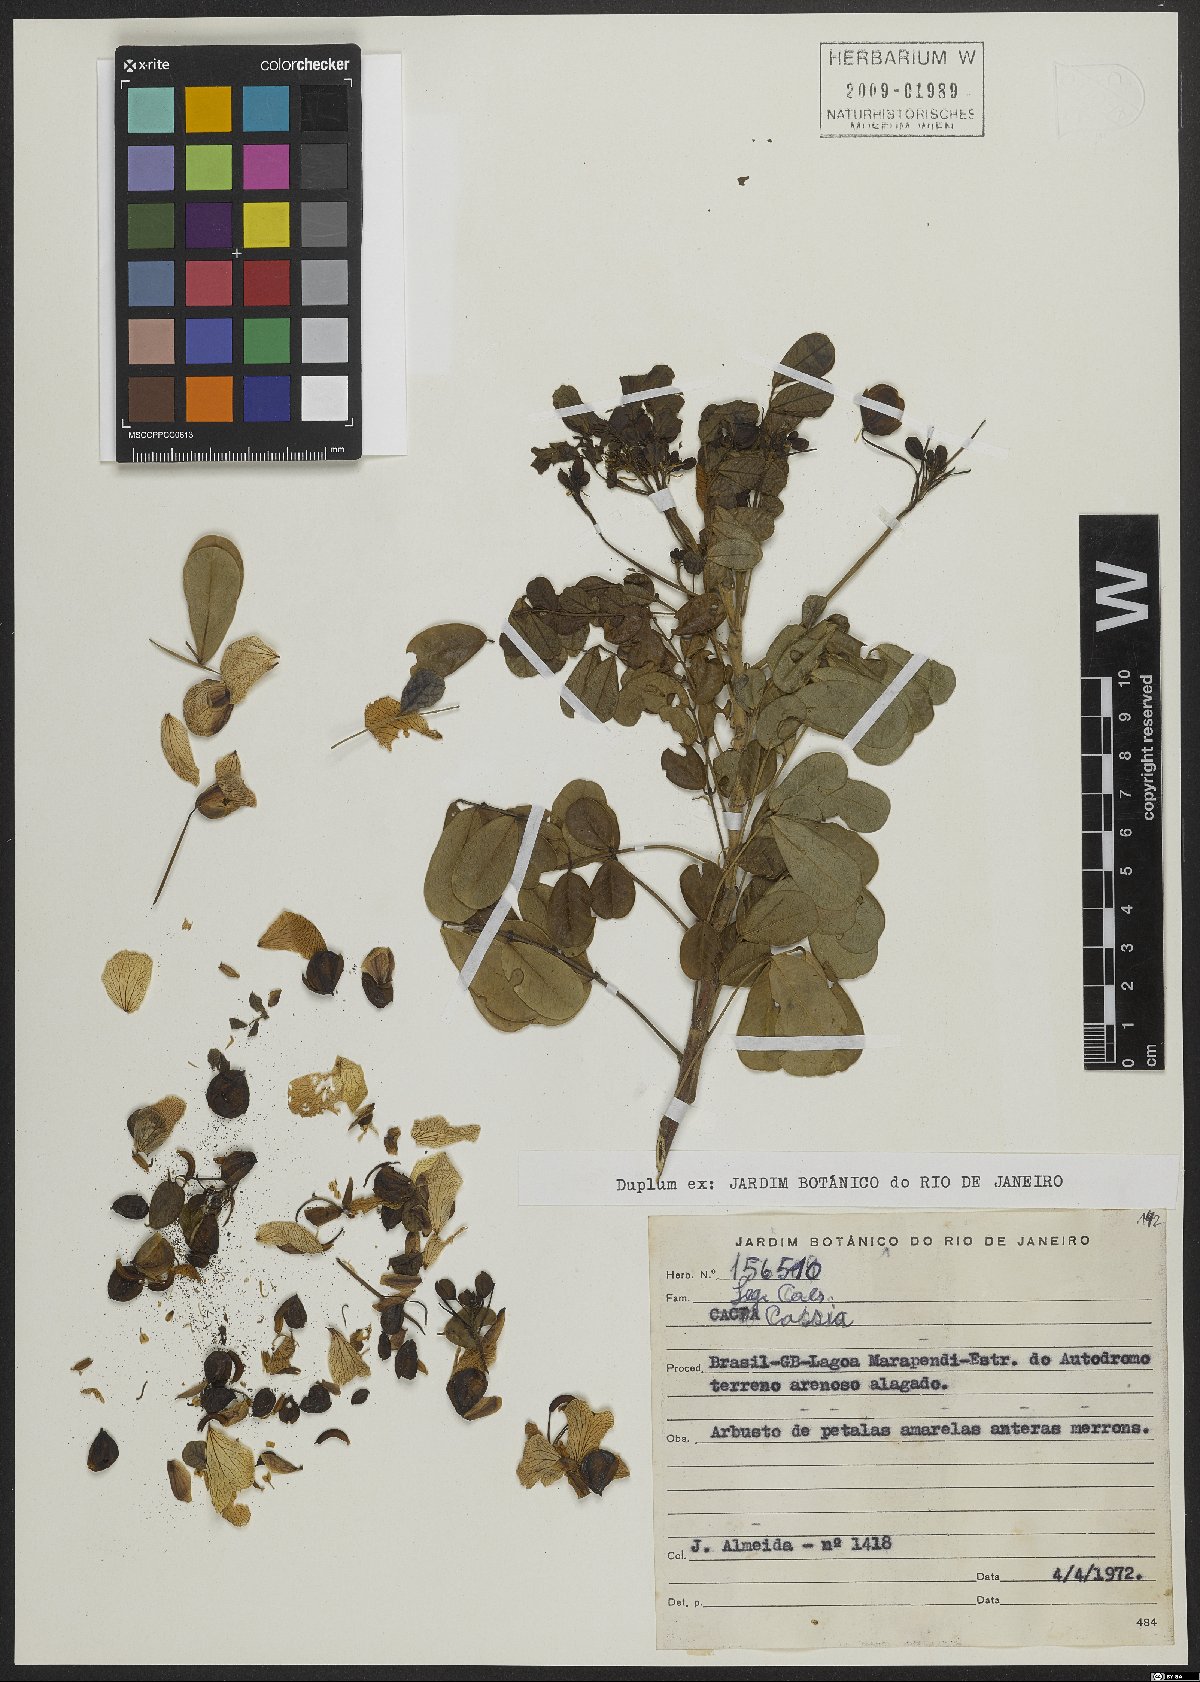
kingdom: Plantae
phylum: Tracheophyta
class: Magnoliopsida
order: Fabales
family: Fabaceae
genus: Cassia
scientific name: Cassia
